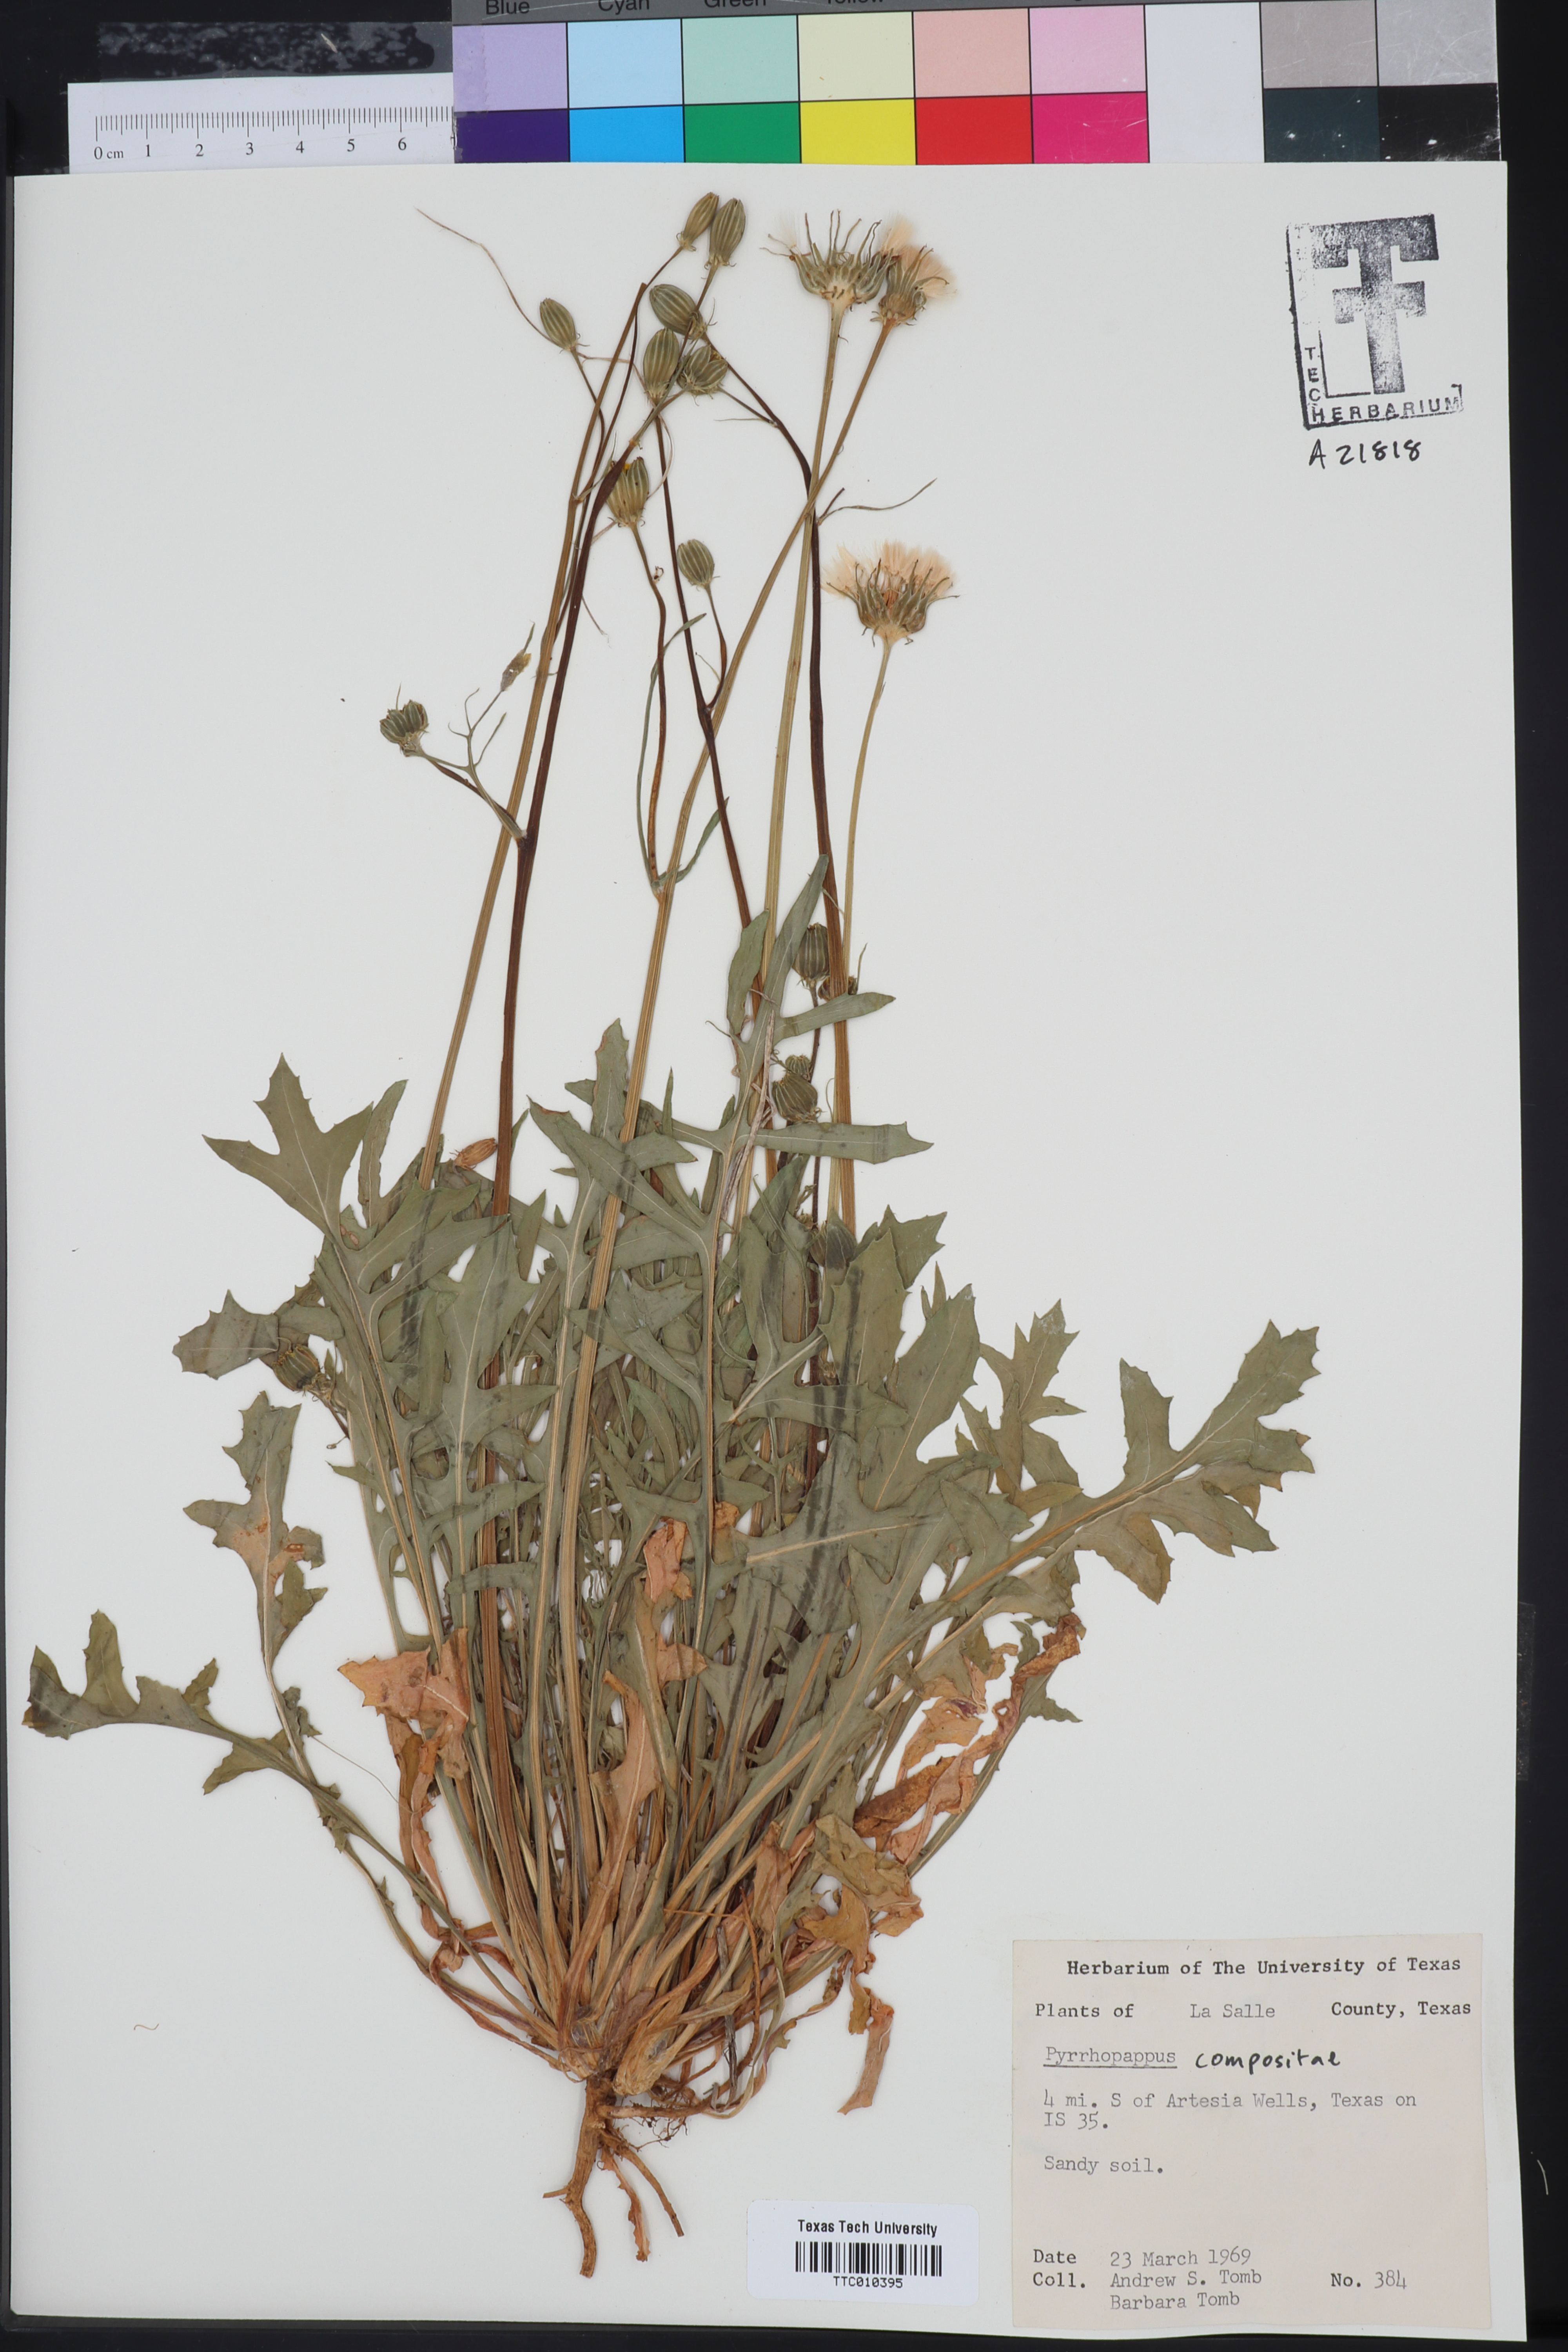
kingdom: Plantae
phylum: Tracheophyta
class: Magnoliopsida
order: Asterales
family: Asteraceae
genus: Pyrrhopappus
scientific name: Pyrrhopappus
